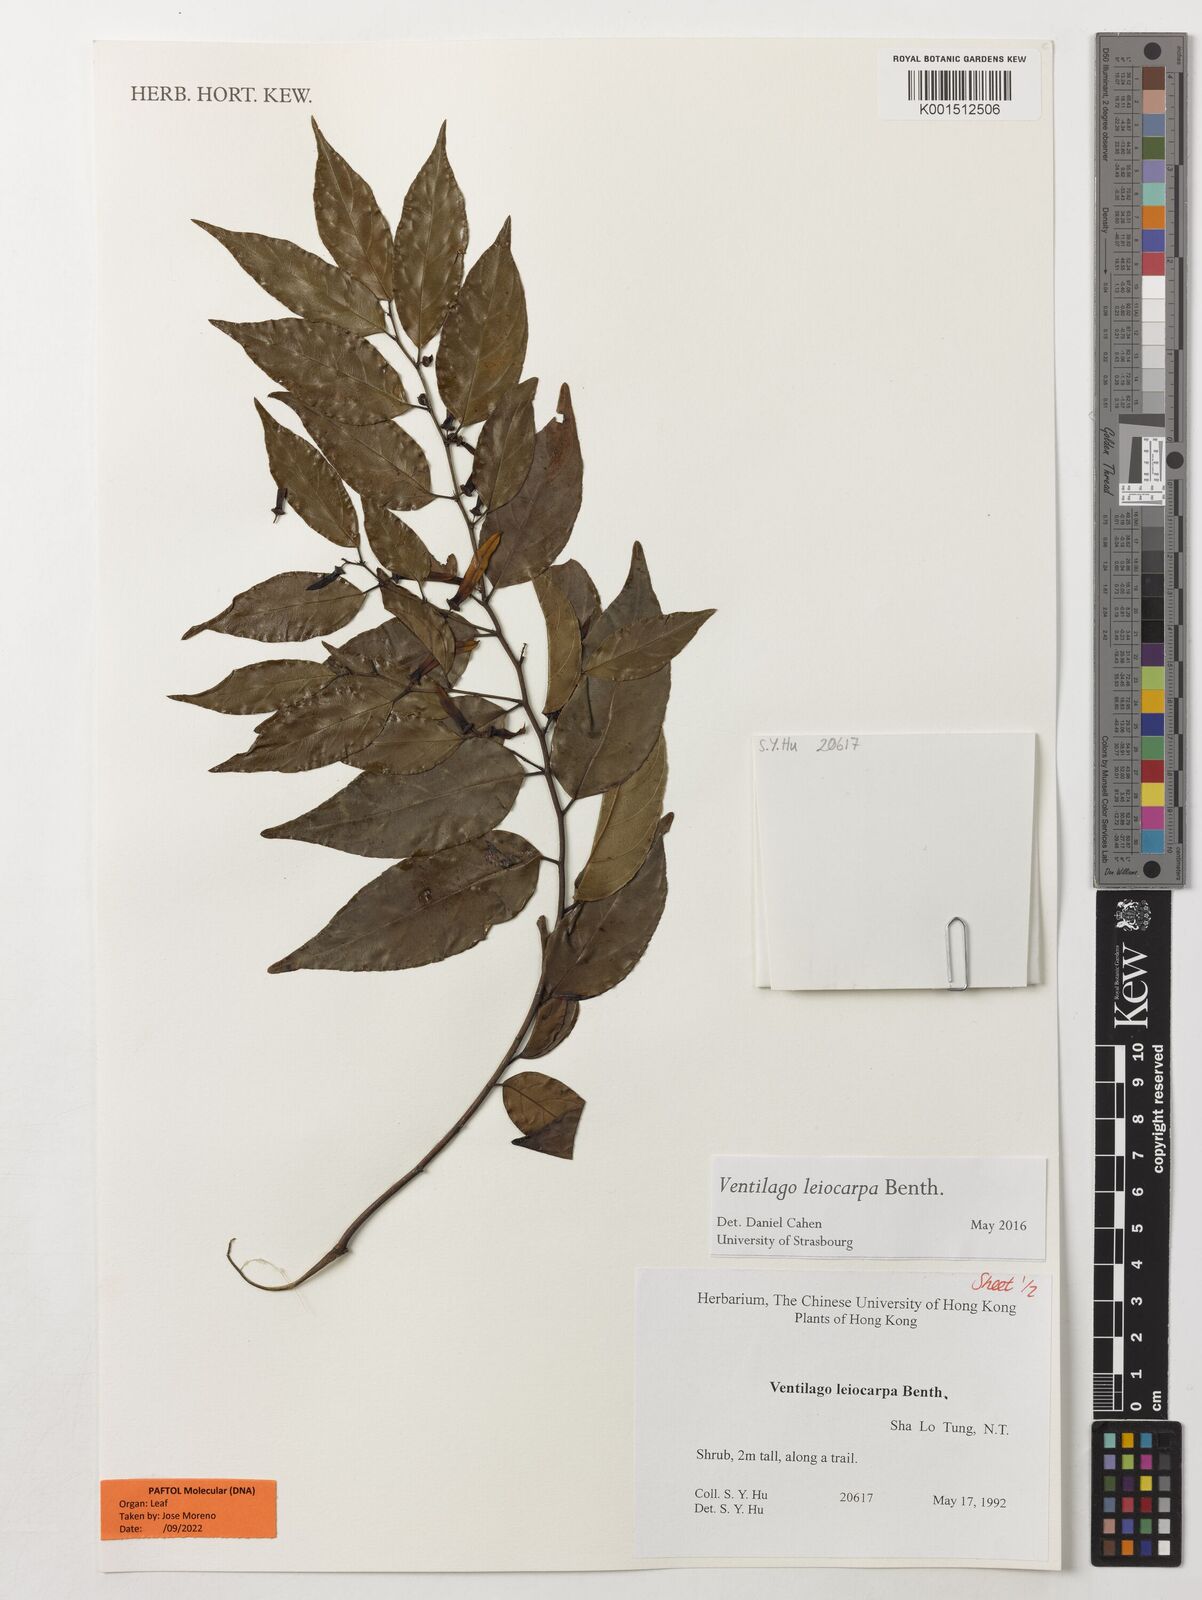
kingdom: Plantae
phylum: Tracheophyta
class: Magnoliopsida
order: Rosales
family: Rhamnaceae
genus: Ventilago
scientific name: Ventilago leiocarpa
